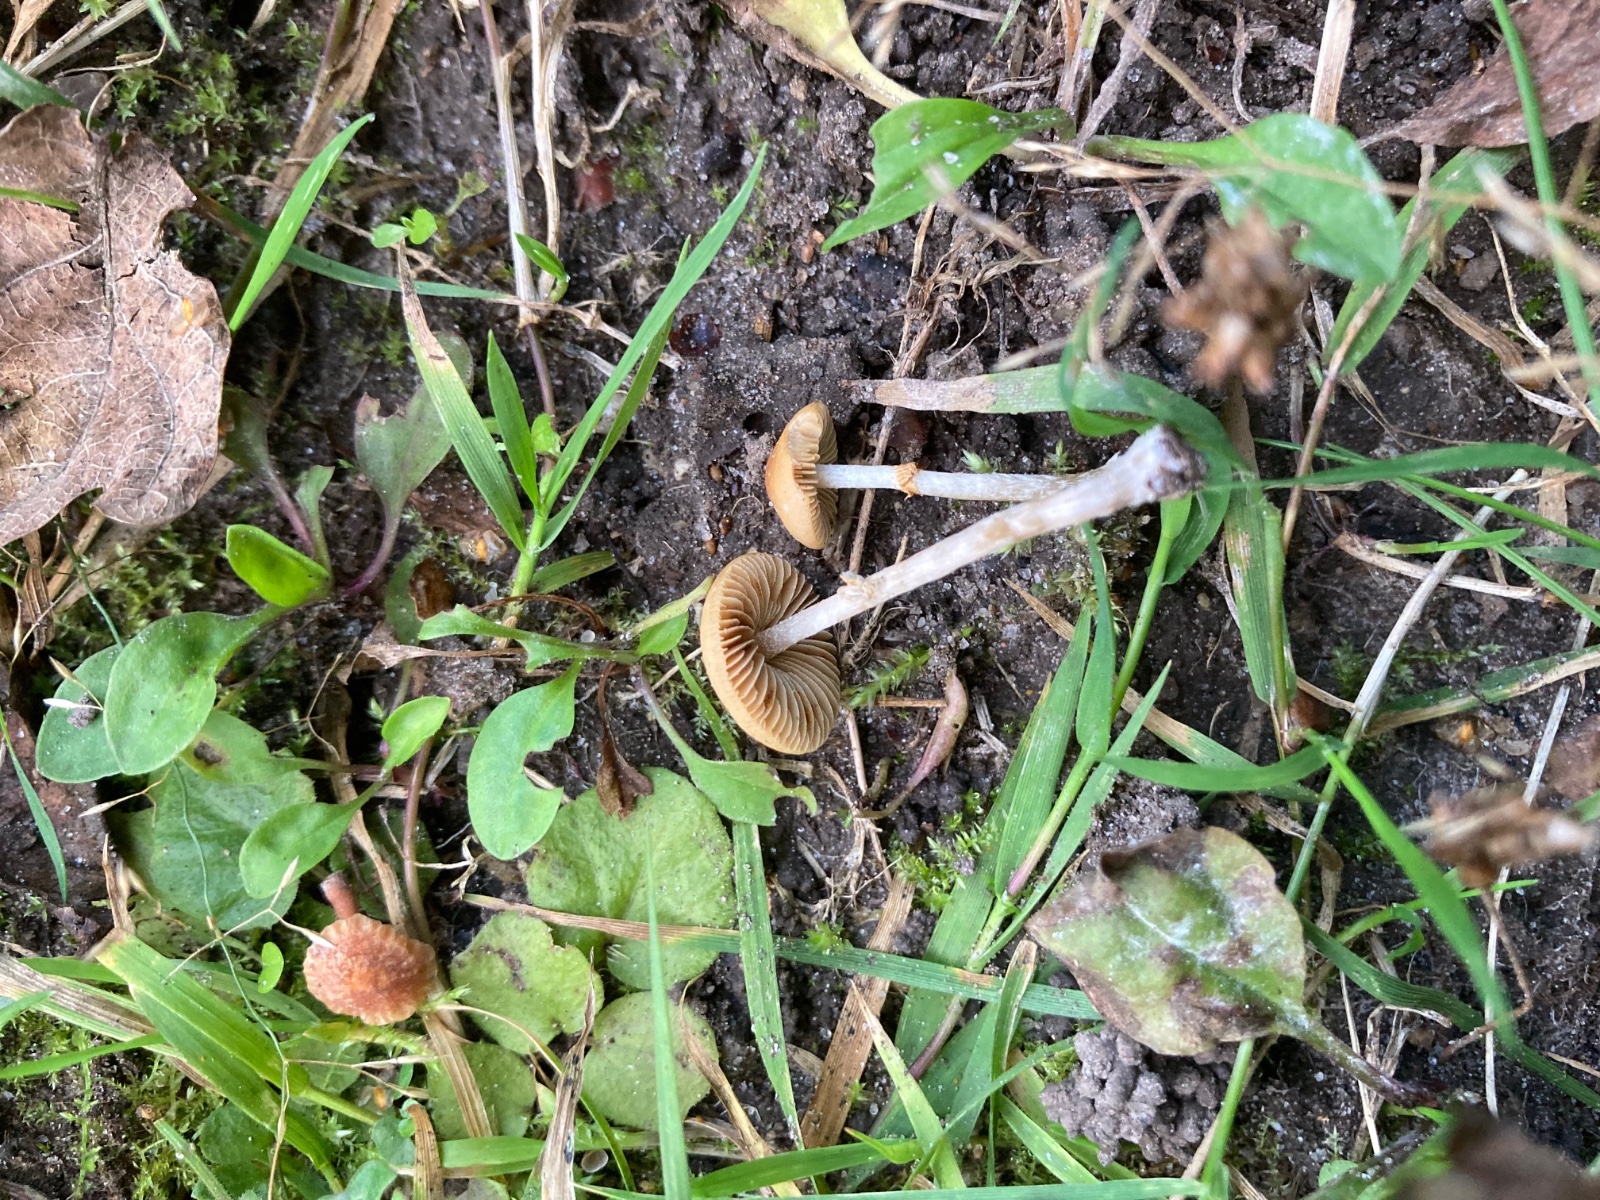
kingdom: Fungi
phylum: Basidiomycota
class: Agaricomycetes
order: Agaricales
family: Bolbitiaceae
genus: Conocybe
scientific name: Conocybe arrhenii
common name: ring-dansehat
